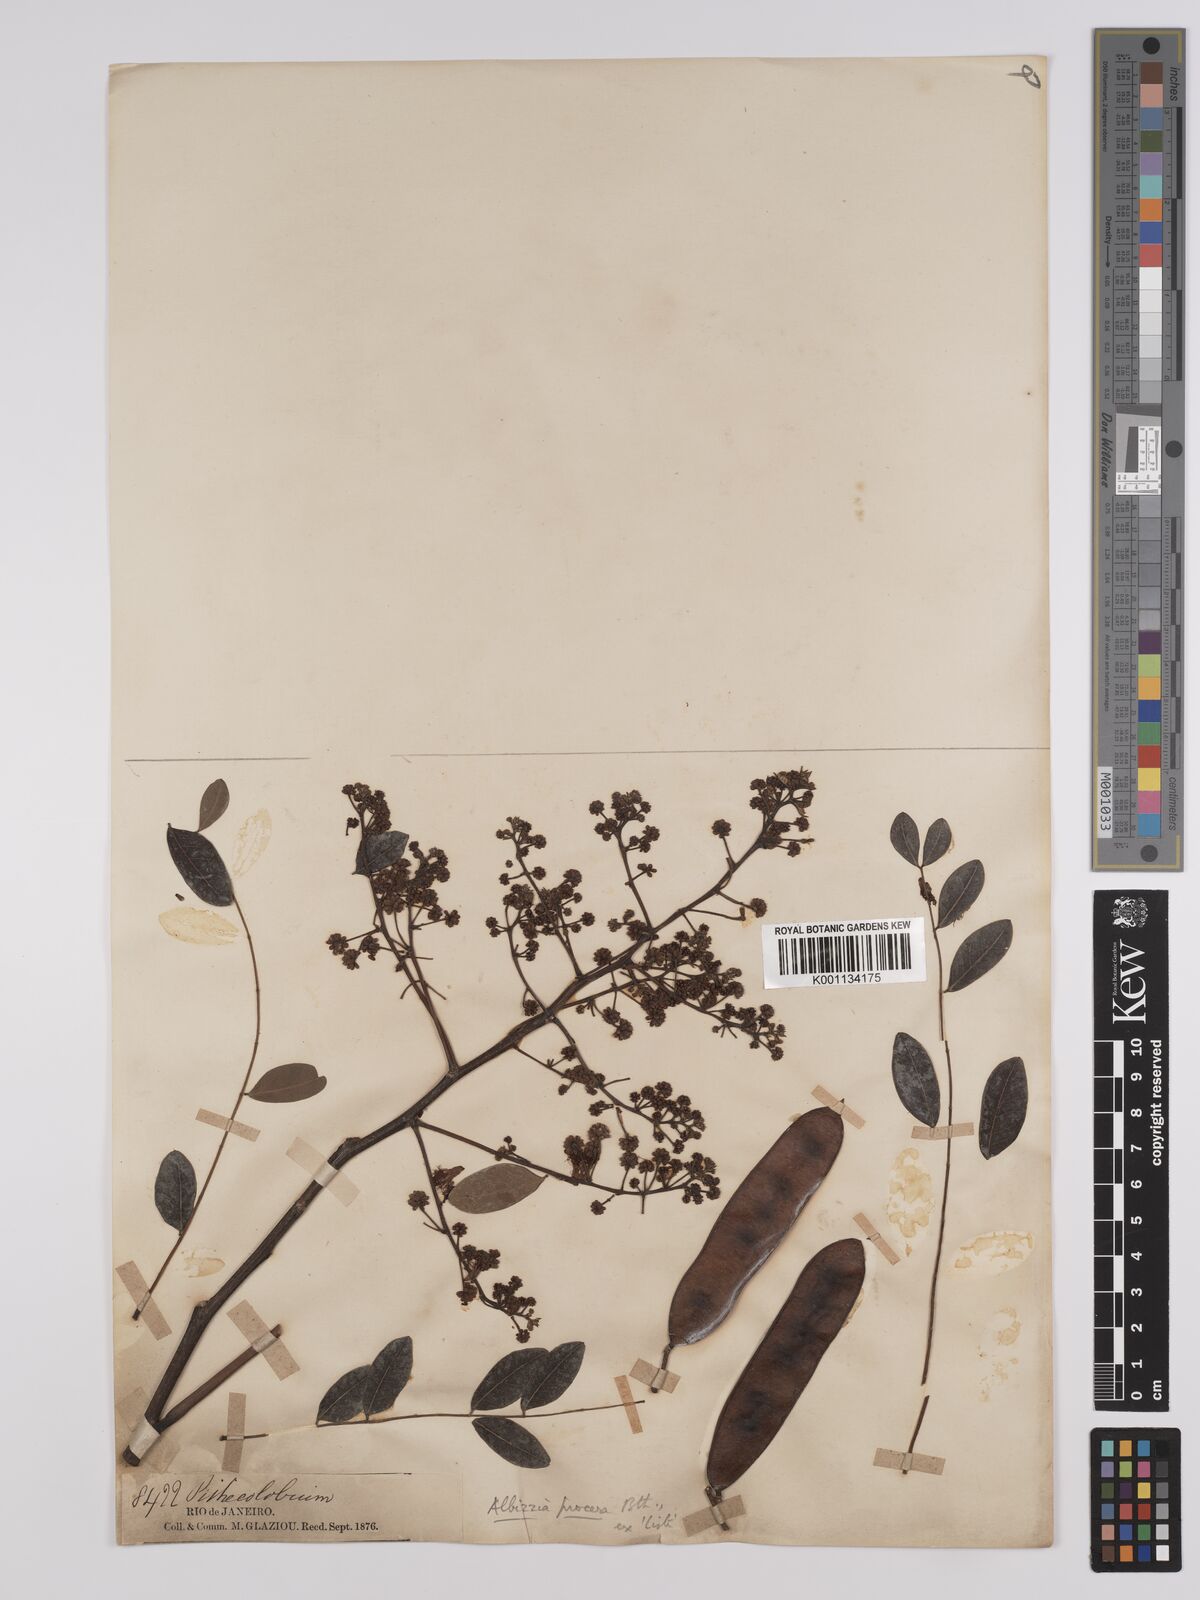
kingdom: Plantae
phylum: Tracheophyta
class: Magnoliopsida
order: Fabales
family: Fabaceae
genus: Albizia
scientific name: Albizia procera
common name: Tall albizia
